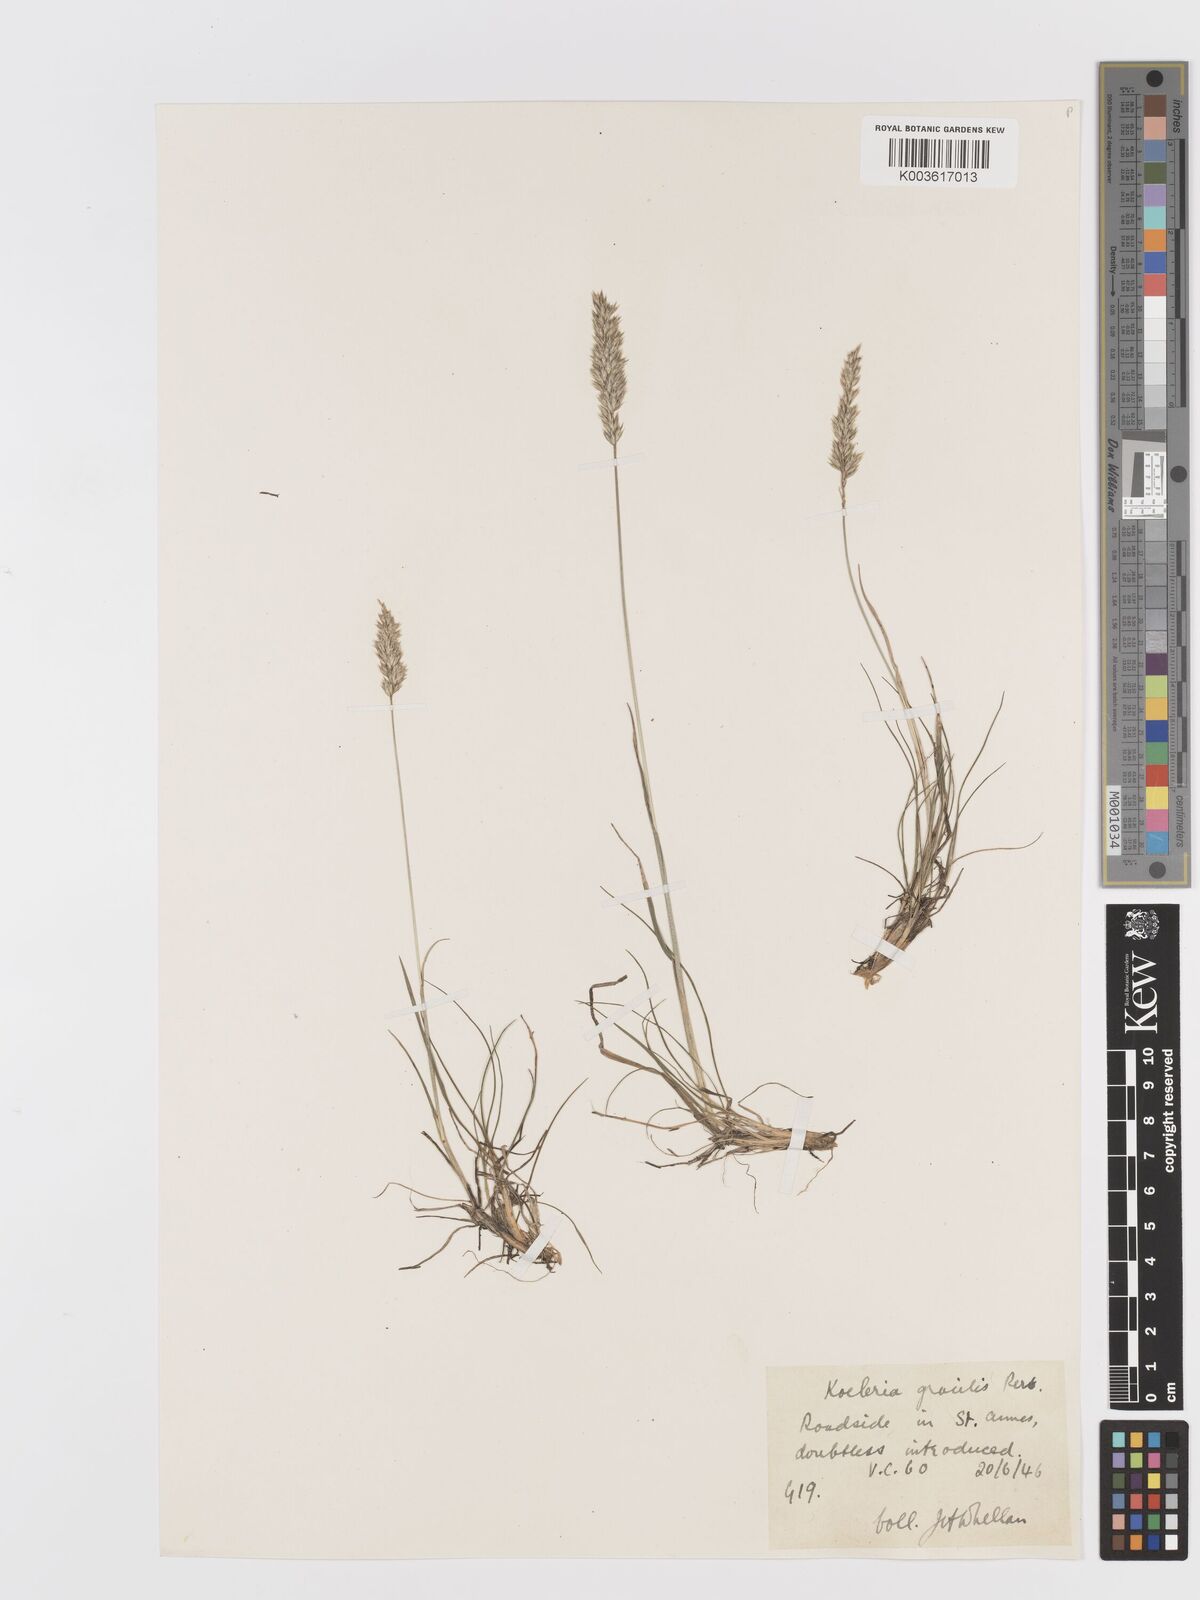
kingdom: Plantae
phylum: Tracheophyta
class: Liliopsida
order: Poales
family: Poaceae
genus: Koeleria
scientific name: Koeleria macrantha
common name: Crested hair-grass
